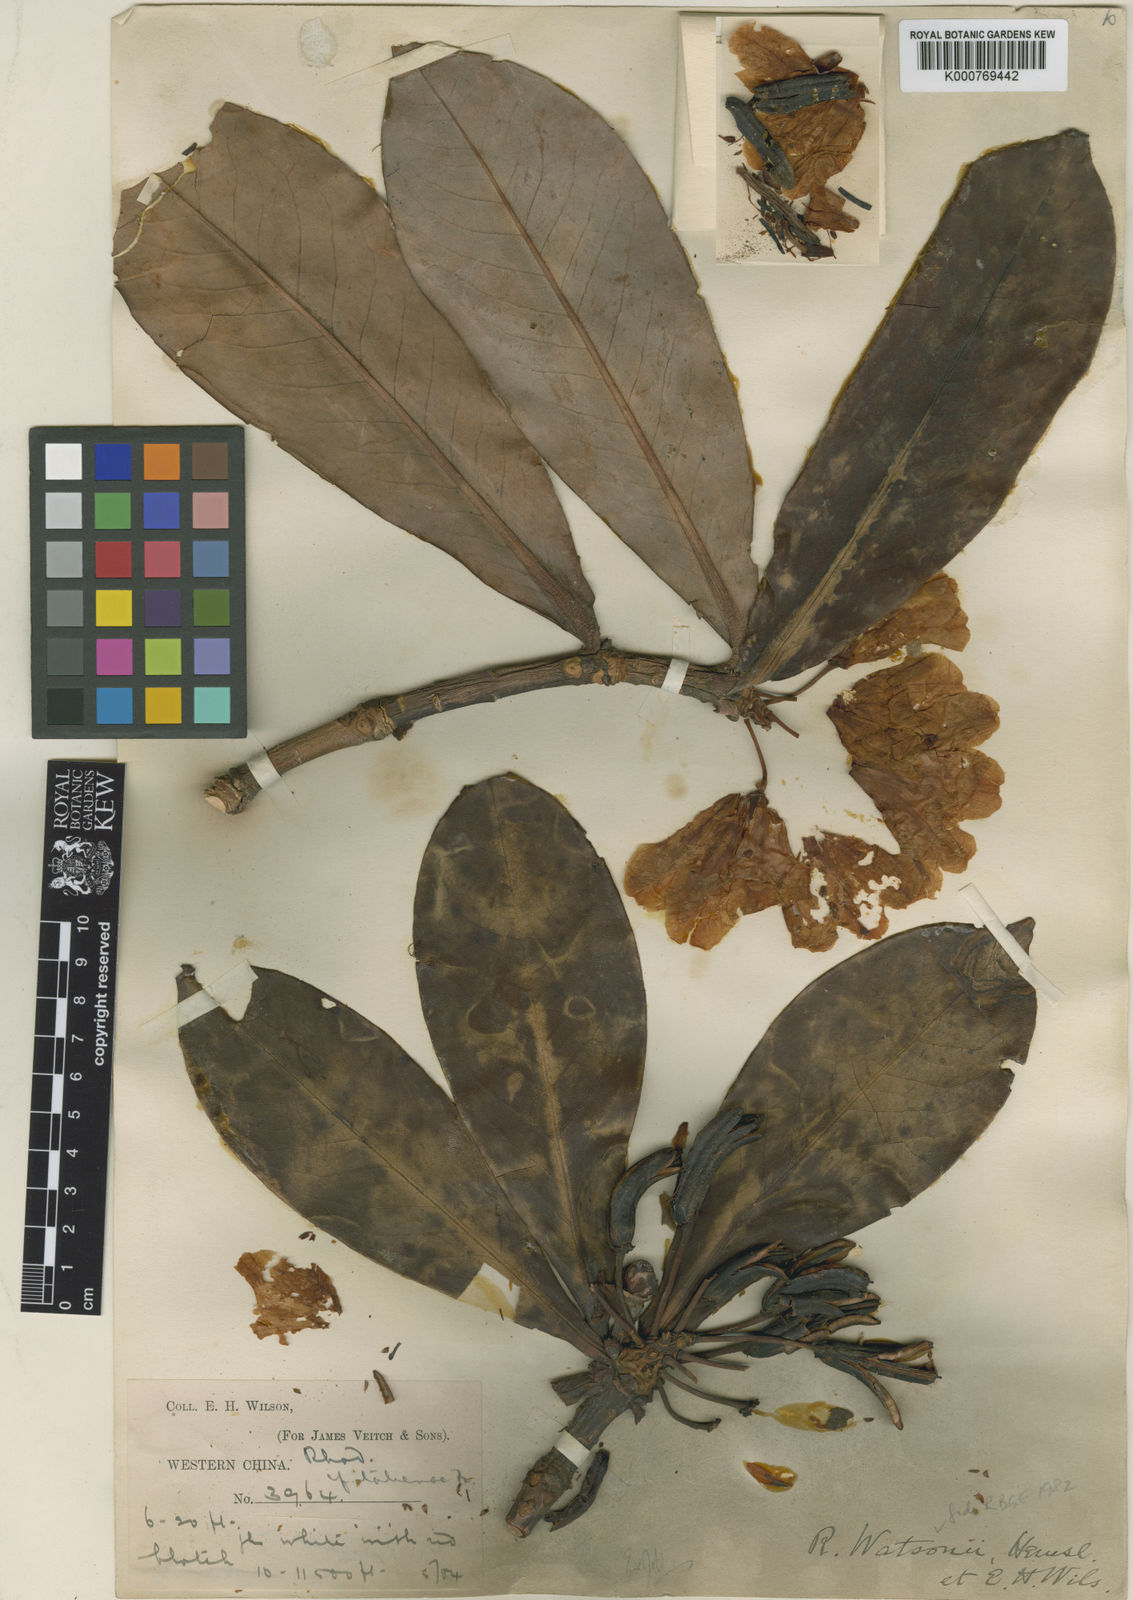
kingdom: Plantae
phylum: Tracheophyta
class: Magnoliopsida
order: Ericales
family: Ericaceae
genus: Rhododendron
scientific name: Rhododendron watsonii
